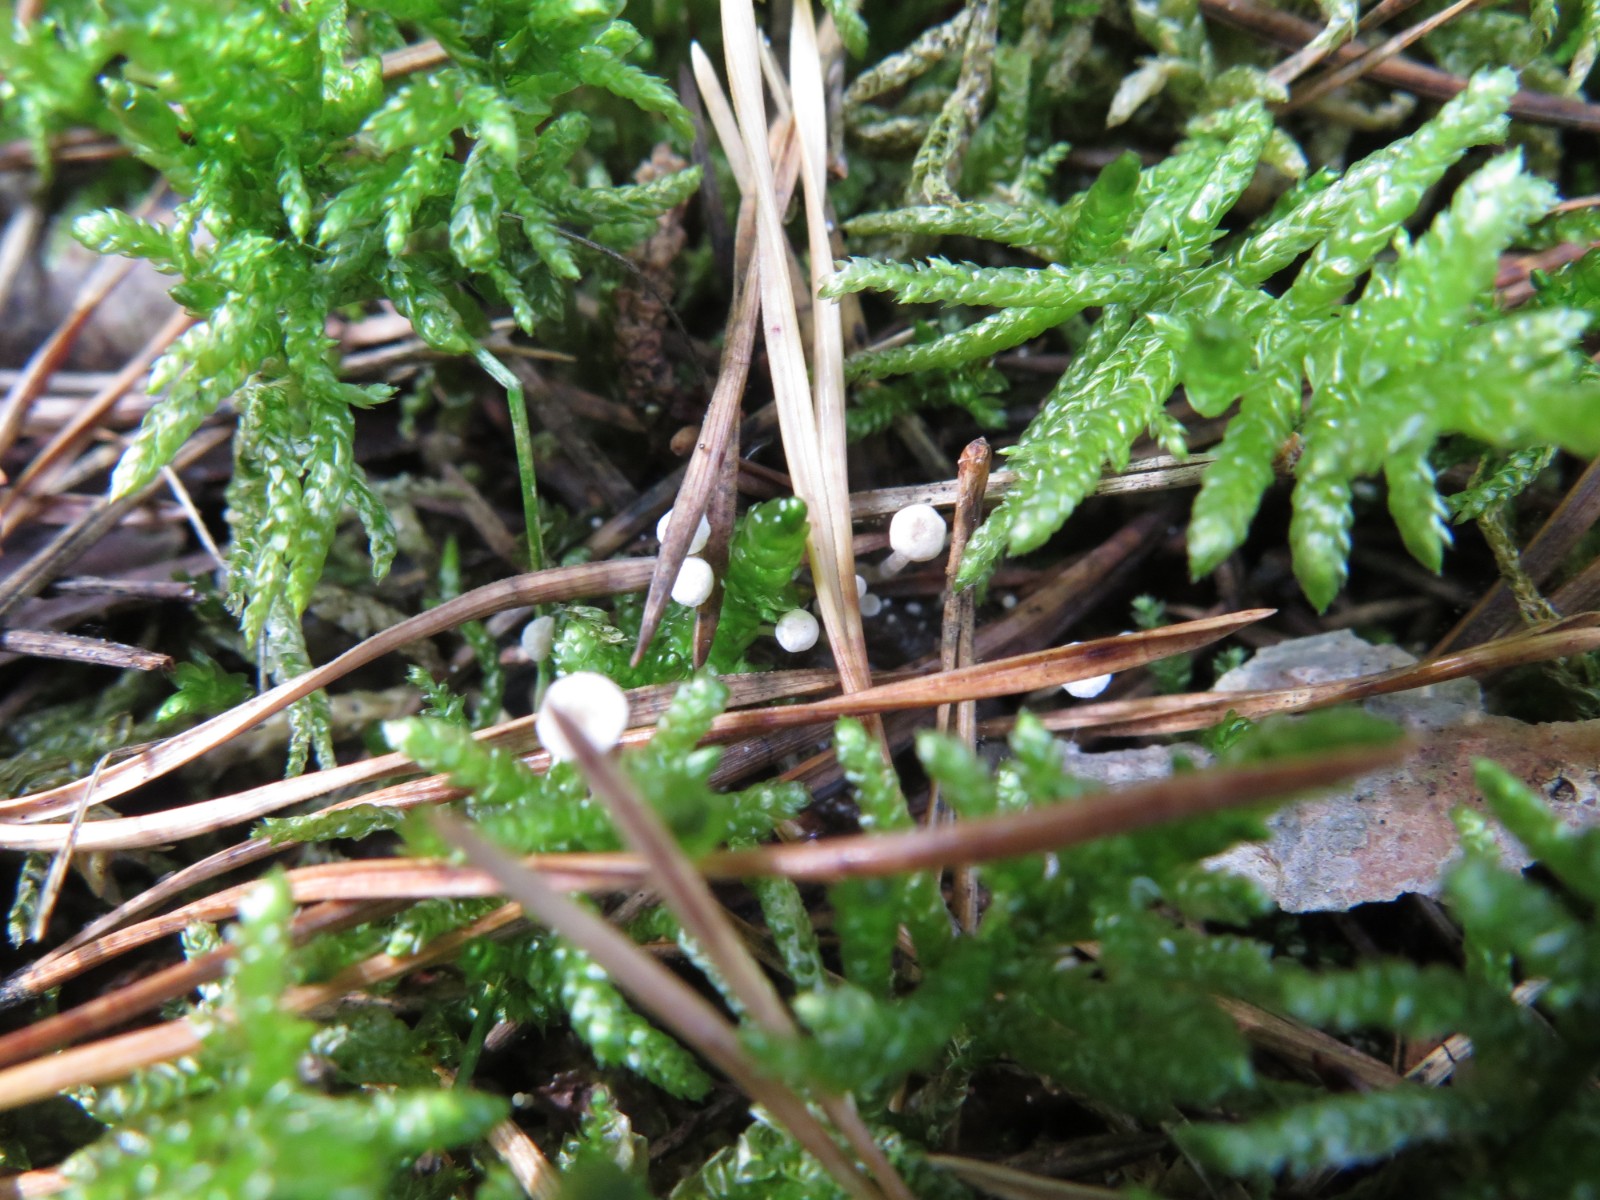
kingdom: Fungi
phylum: Basidiomycota
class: Agaricomycetes
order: Agaricales
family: Tricholomataceae
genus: Collybia
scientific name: Collybia cirrhata
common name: silke-lighat
